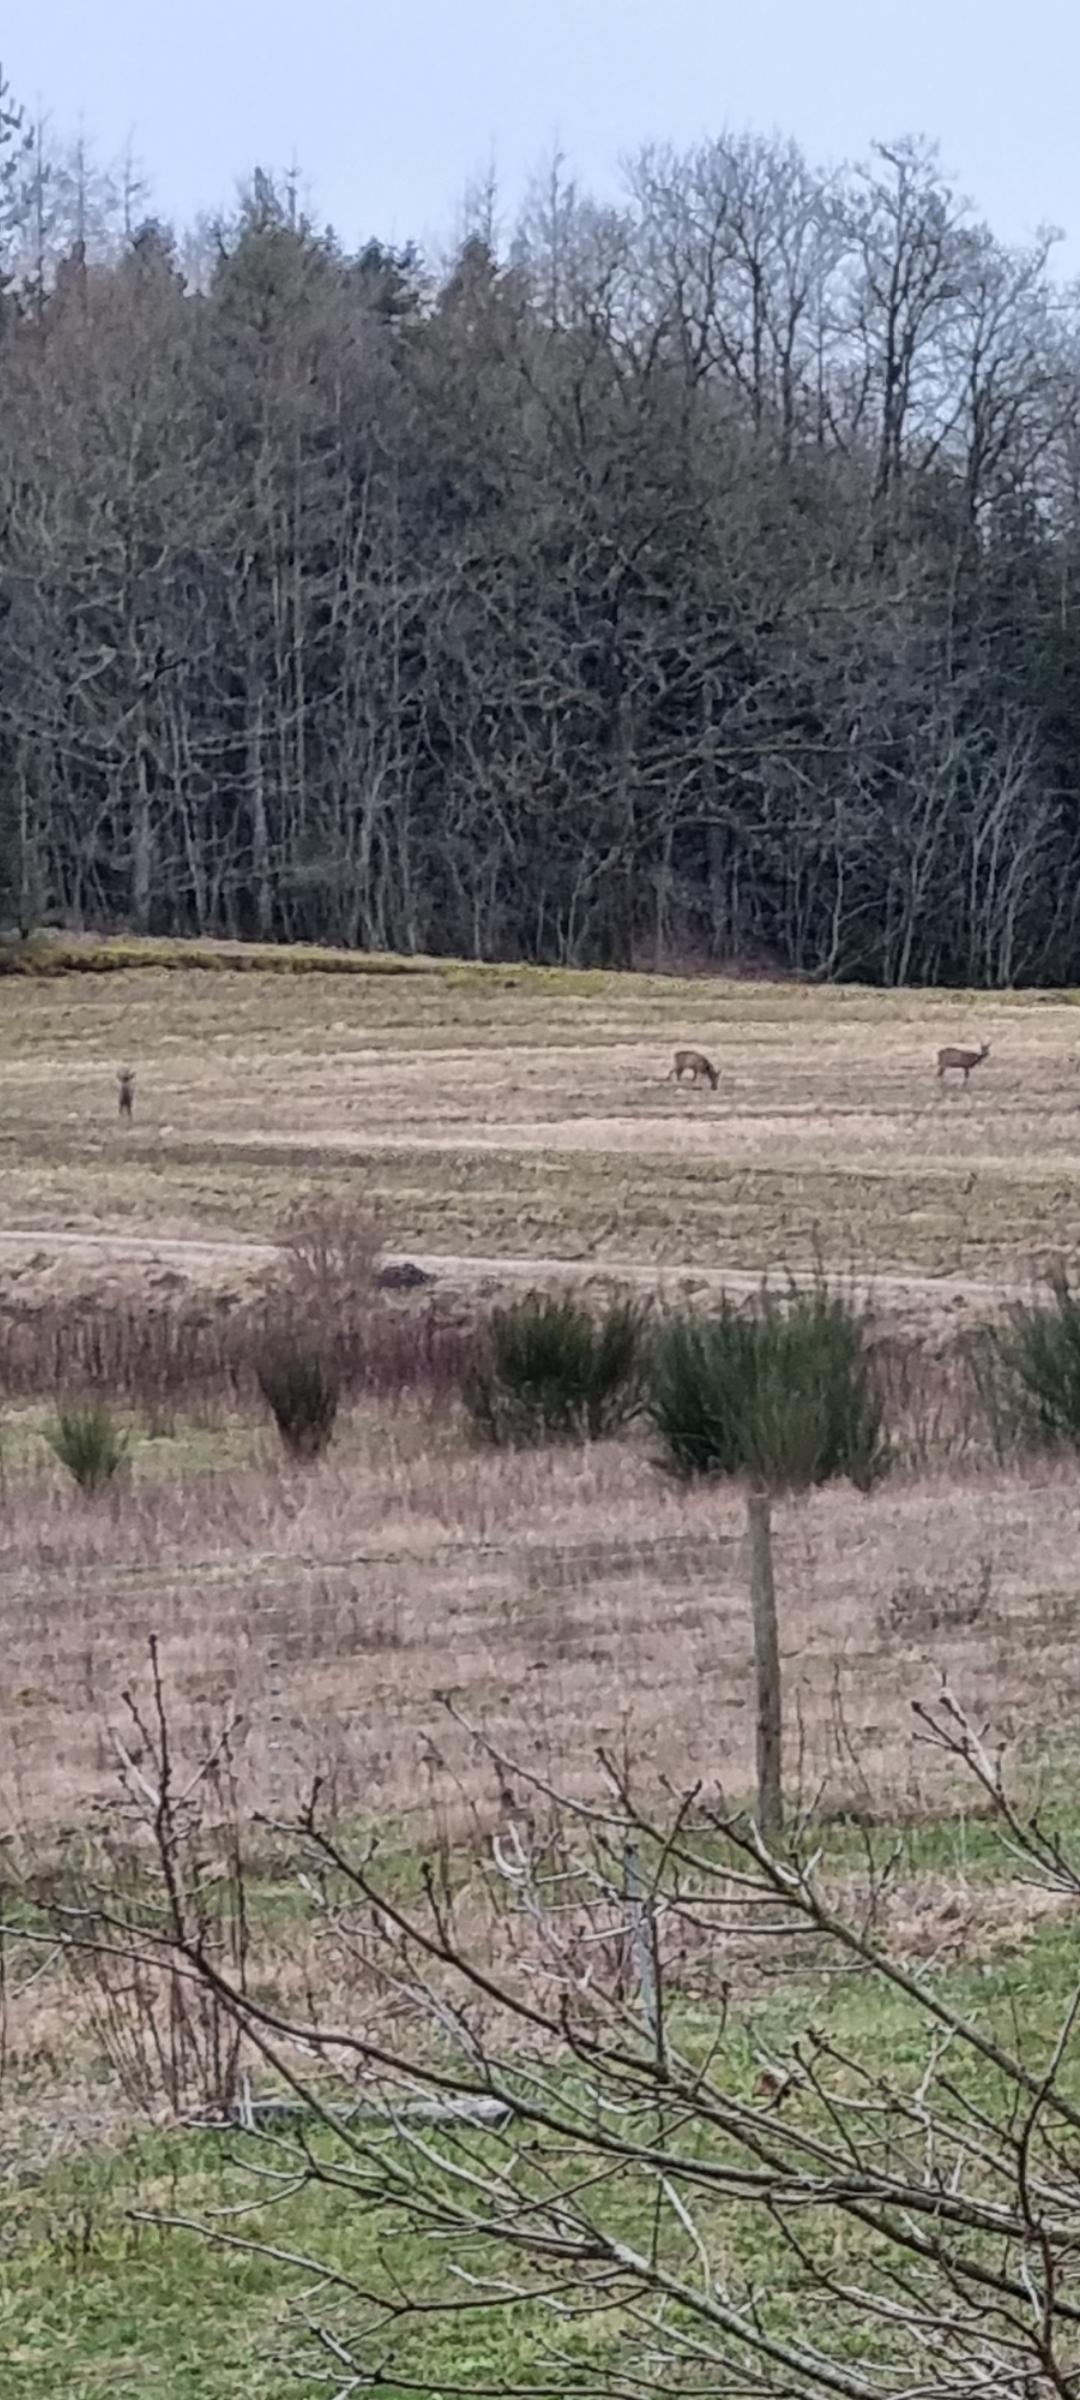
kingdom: Animalia
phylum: Chordata
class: Mammalia
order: Artiodactyla
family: Cervidae
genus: Capreolus
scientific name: Capreolus capreolus
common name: Rådyr
